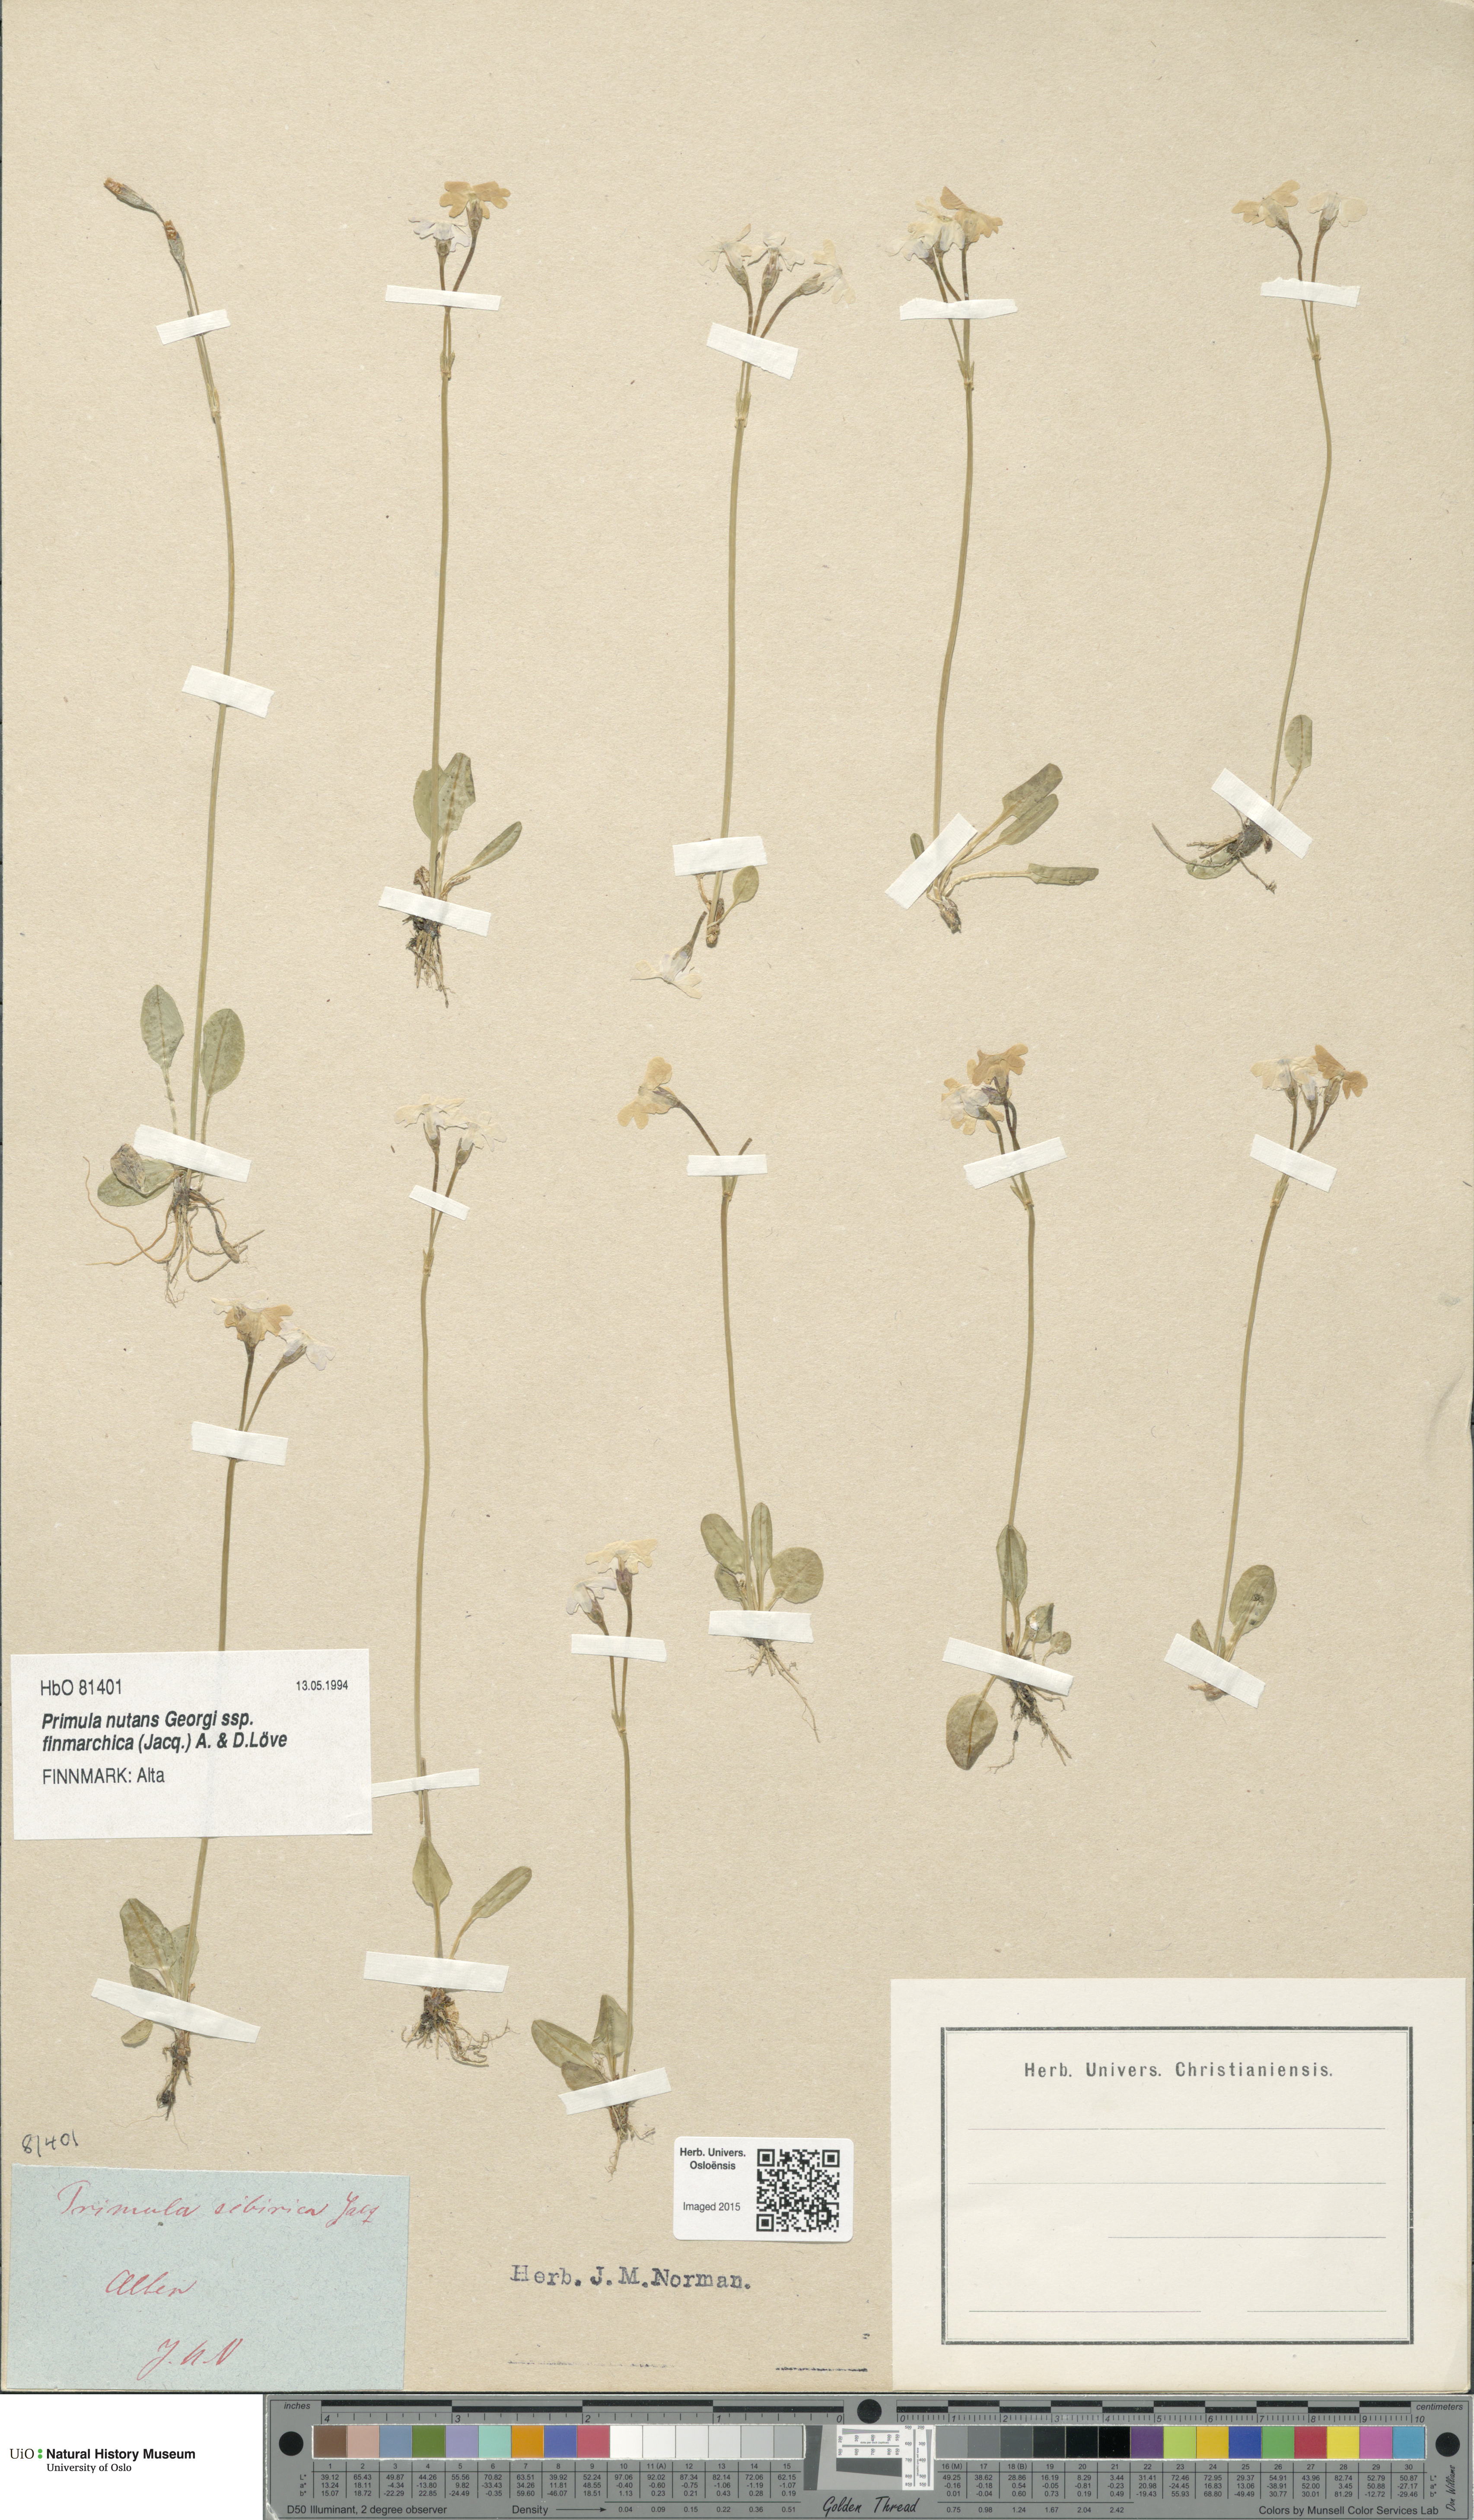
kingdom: Plantae
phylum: Tracheophyta
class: Magnoliopsida
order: Ericales
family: Primulaceae
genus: Primula
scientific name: Primula nutans
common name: Siberian primrose
